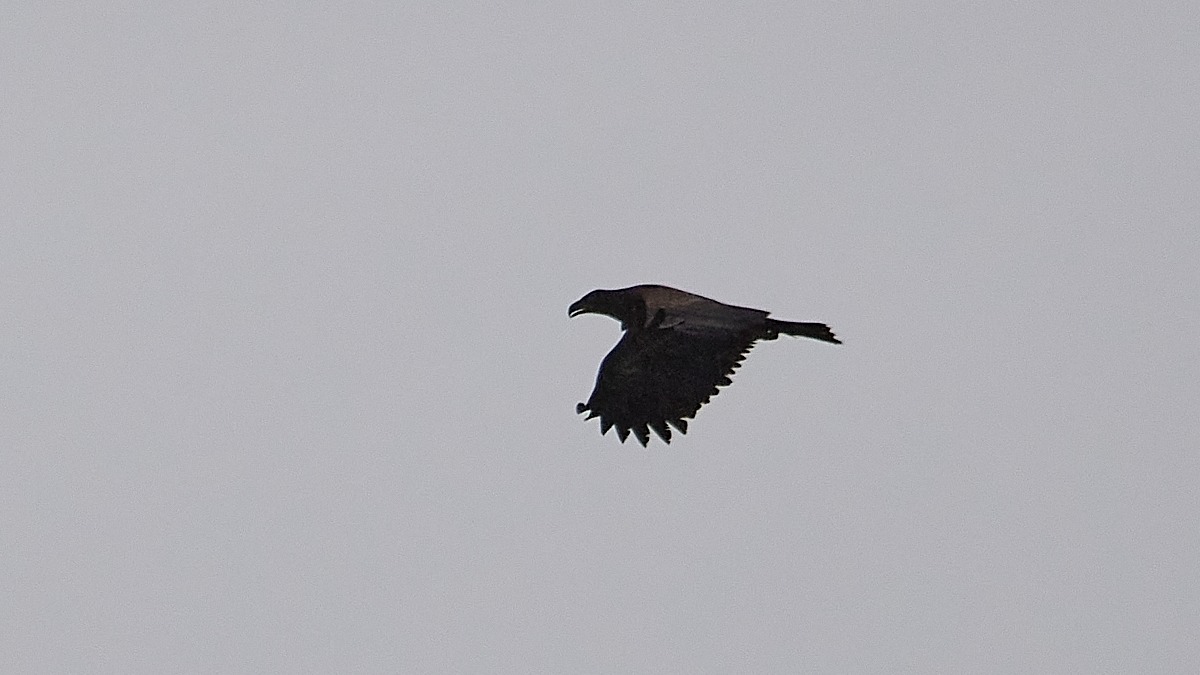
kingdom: Animalia
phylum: Chordata
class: Aves
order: Accipitriformes
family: Accipitridae
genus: Haliaeetus
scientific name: Haliaeetus albicilla
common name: Havørn
